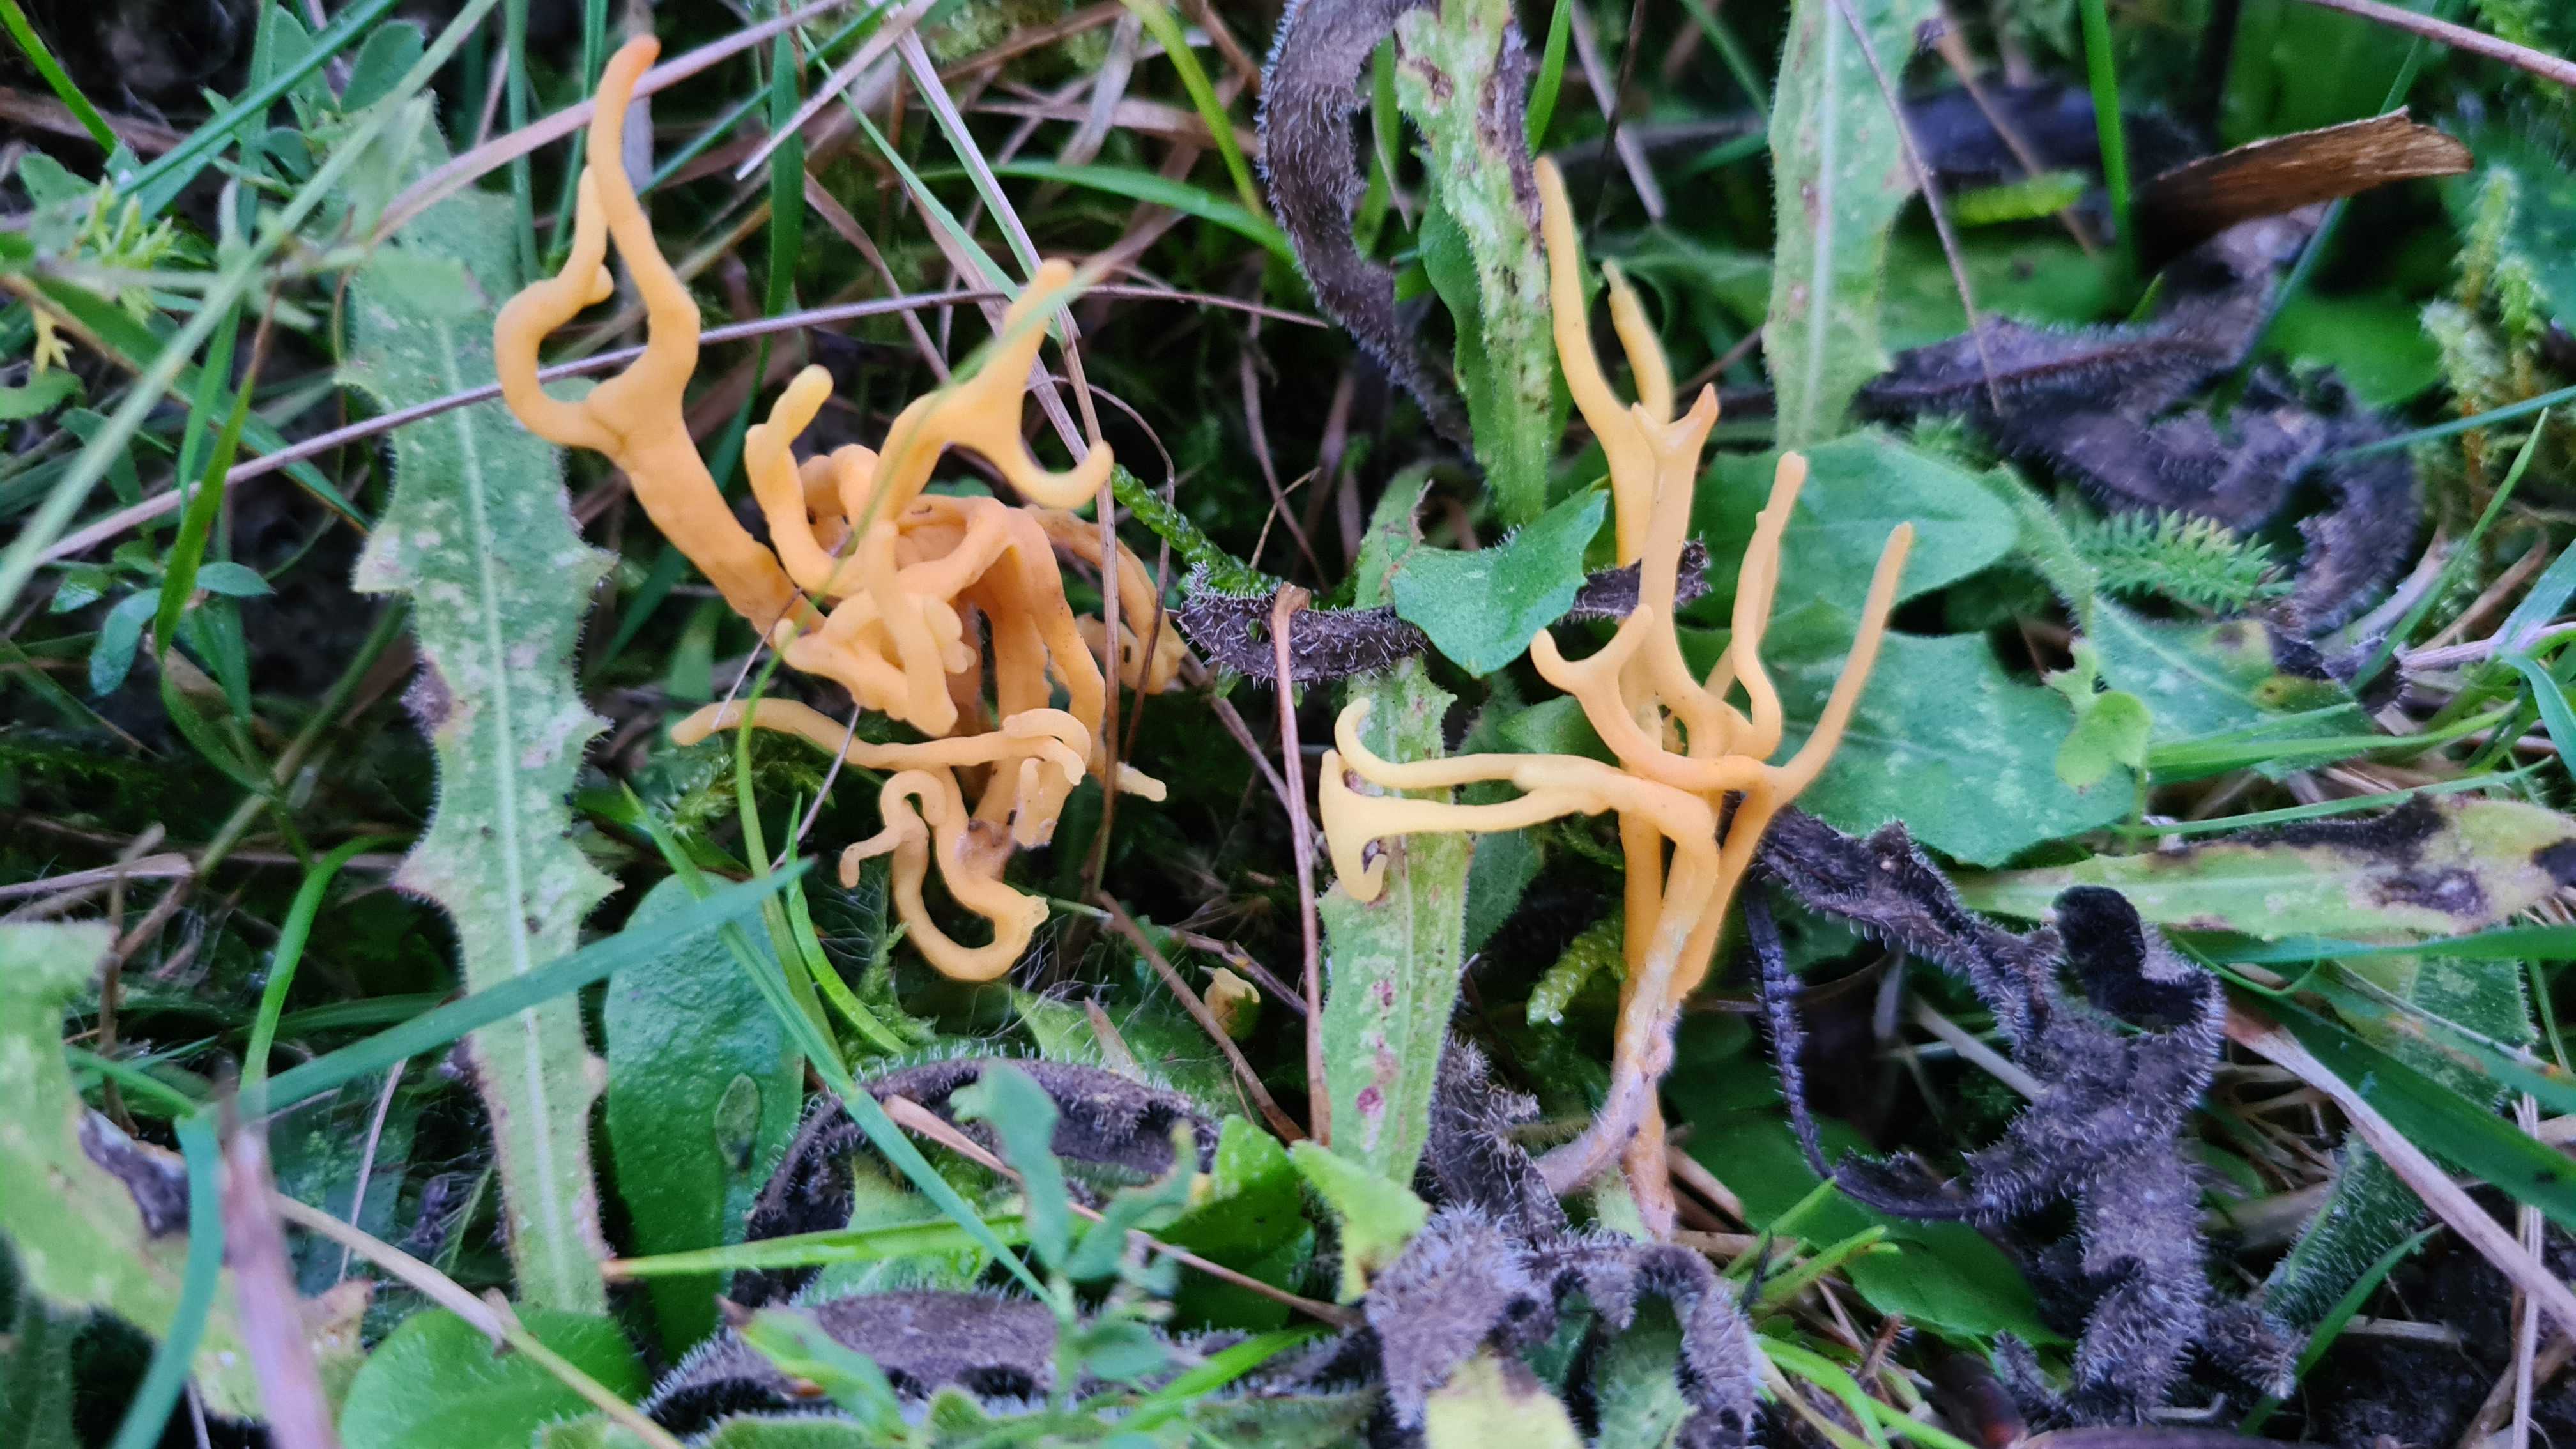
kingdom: Fungi
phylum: Basidiomycota
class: Agaricomycetes
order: Agaricales
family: Clavariaceae
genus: Clavulinopsis
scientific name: Clavulinopsis corniculata
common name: eng-køllesvamp
